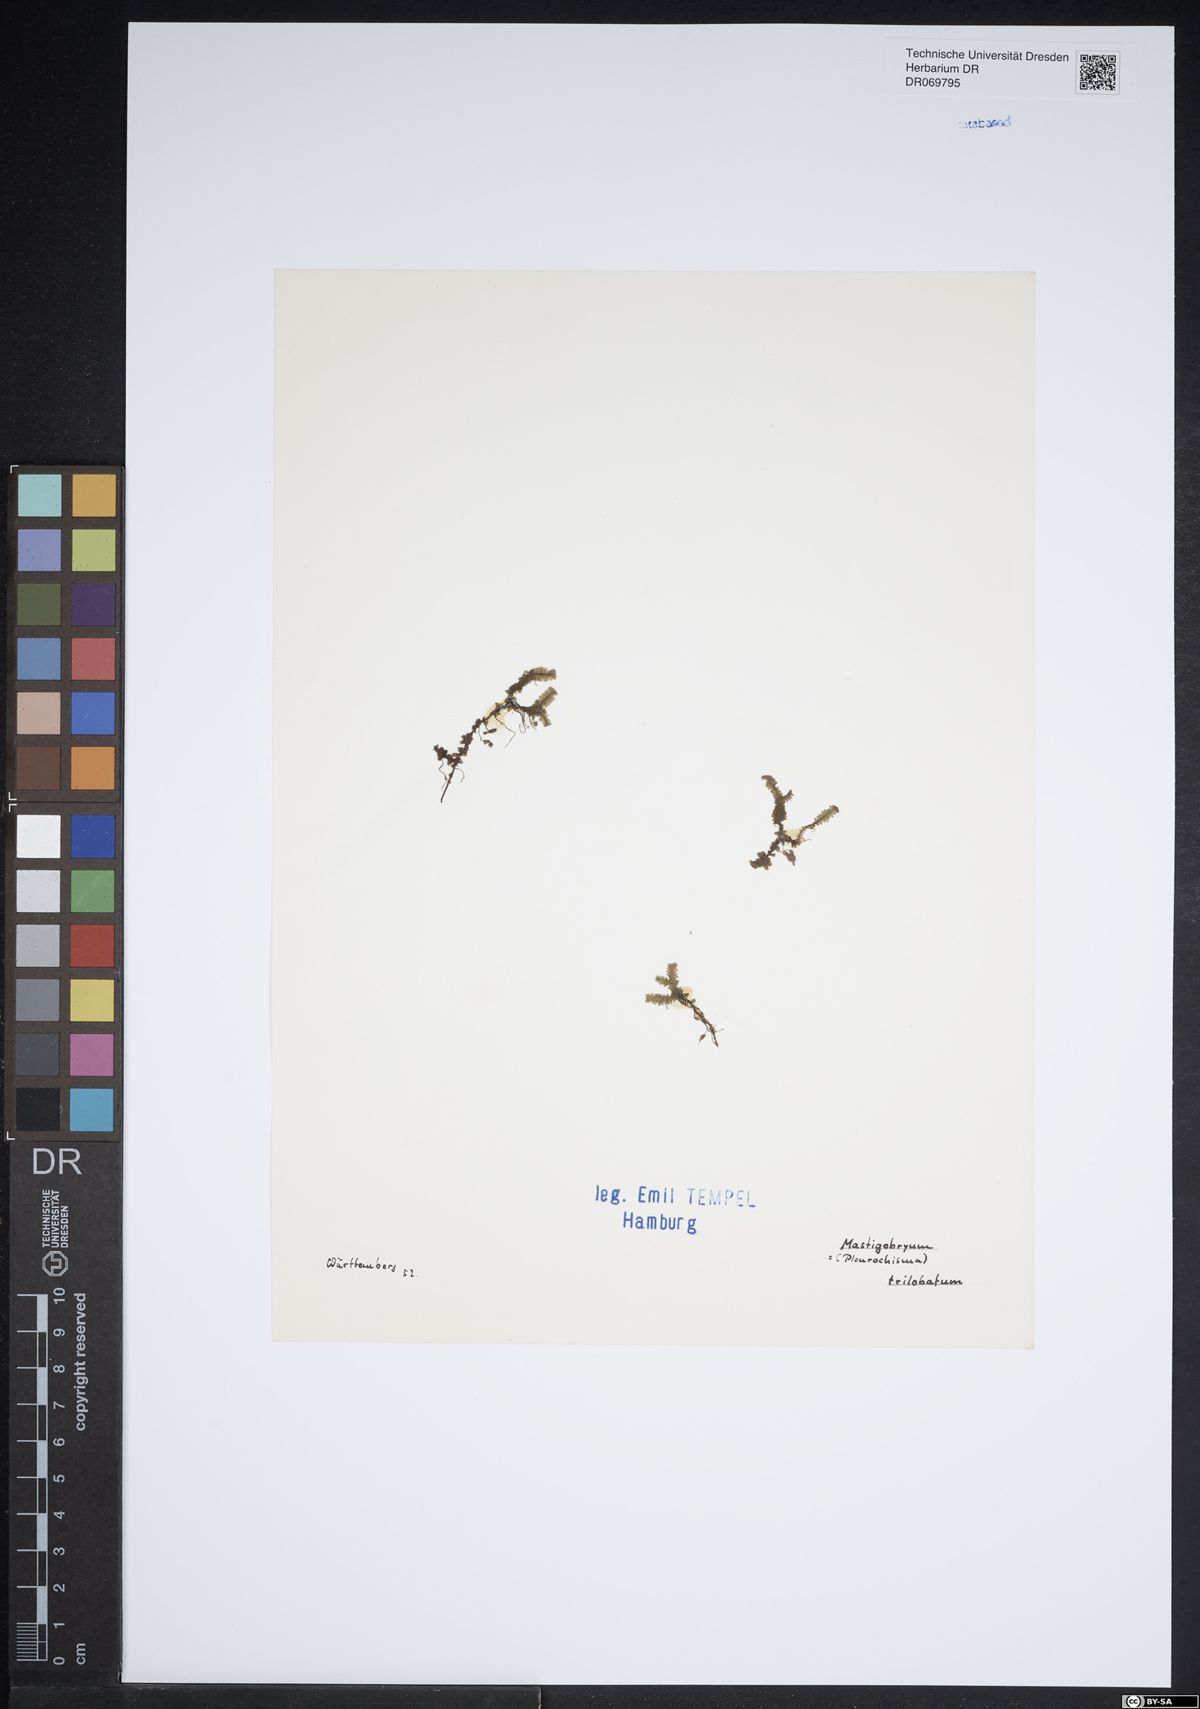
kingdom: Plantae
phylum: Marchantiophyta
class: Jungermanniopsida
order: Jungermanniales
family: Lepidoziaceae
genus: Bazzania
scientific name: Bazzania trilobata
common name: Three-lobed whipwort
